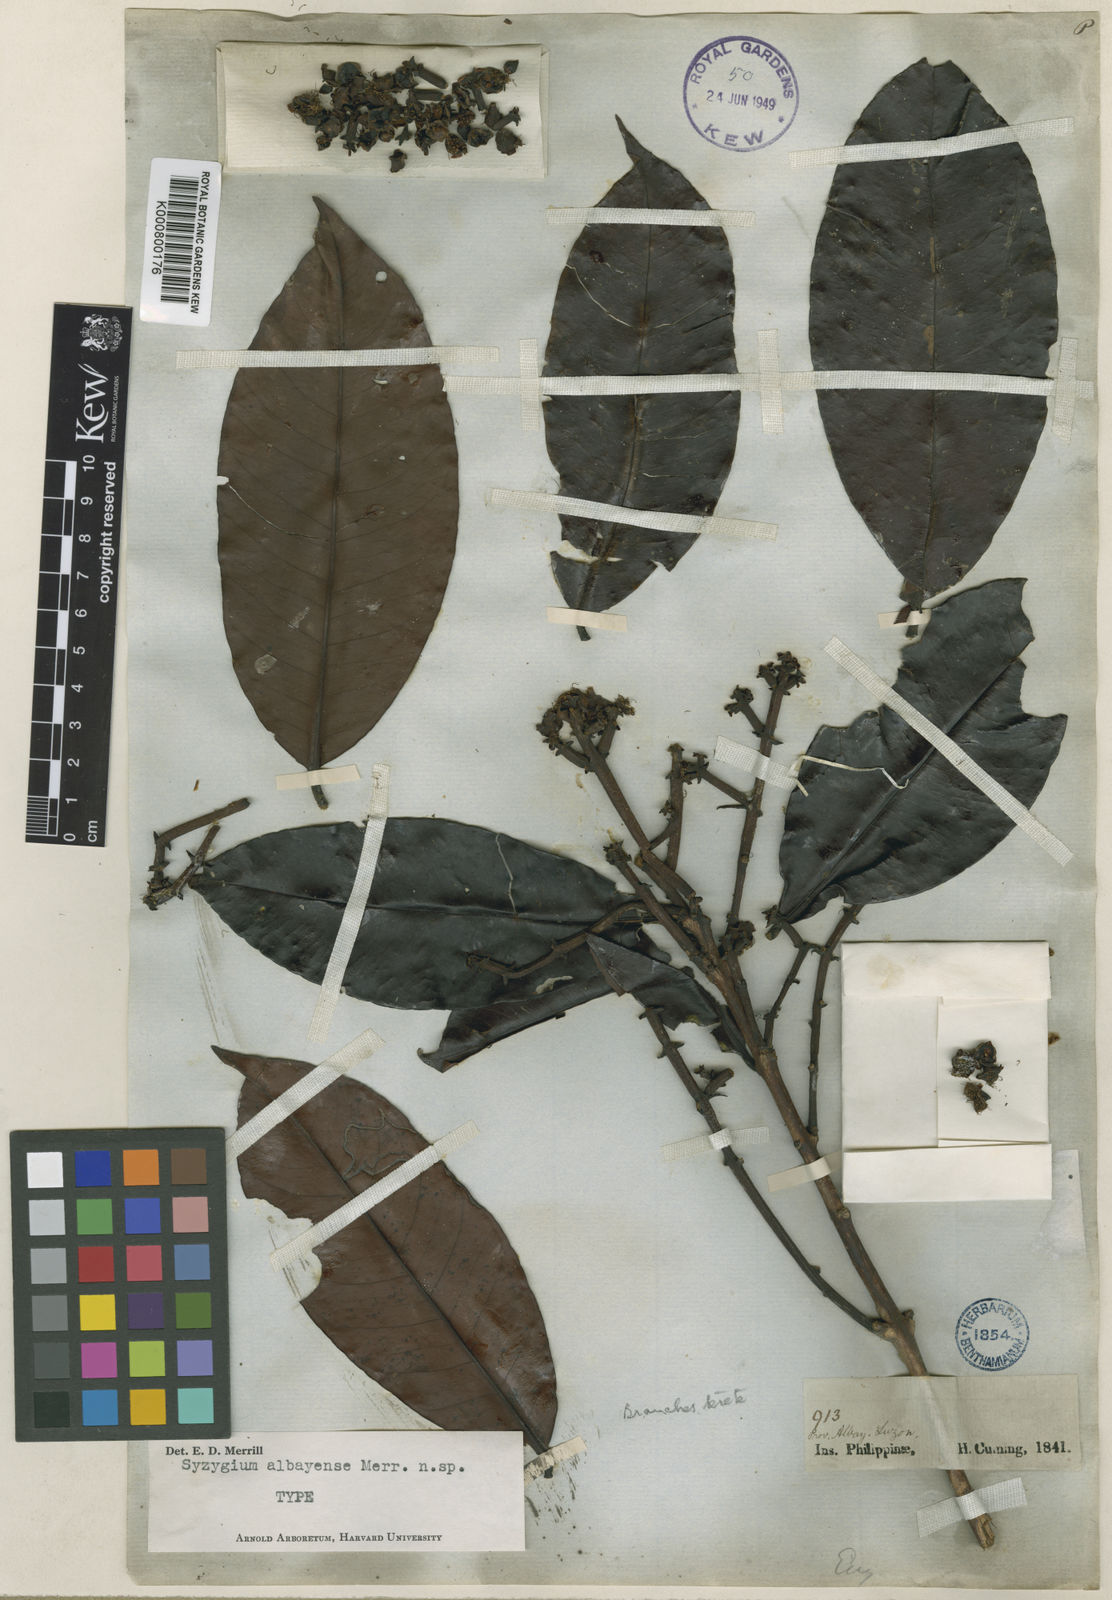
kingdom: Plantae
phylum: Tracheophyta
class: Magnoliopsida
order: Myrtales
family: Myrtaceae
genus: Syzygium
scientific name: Syzygium albayense
